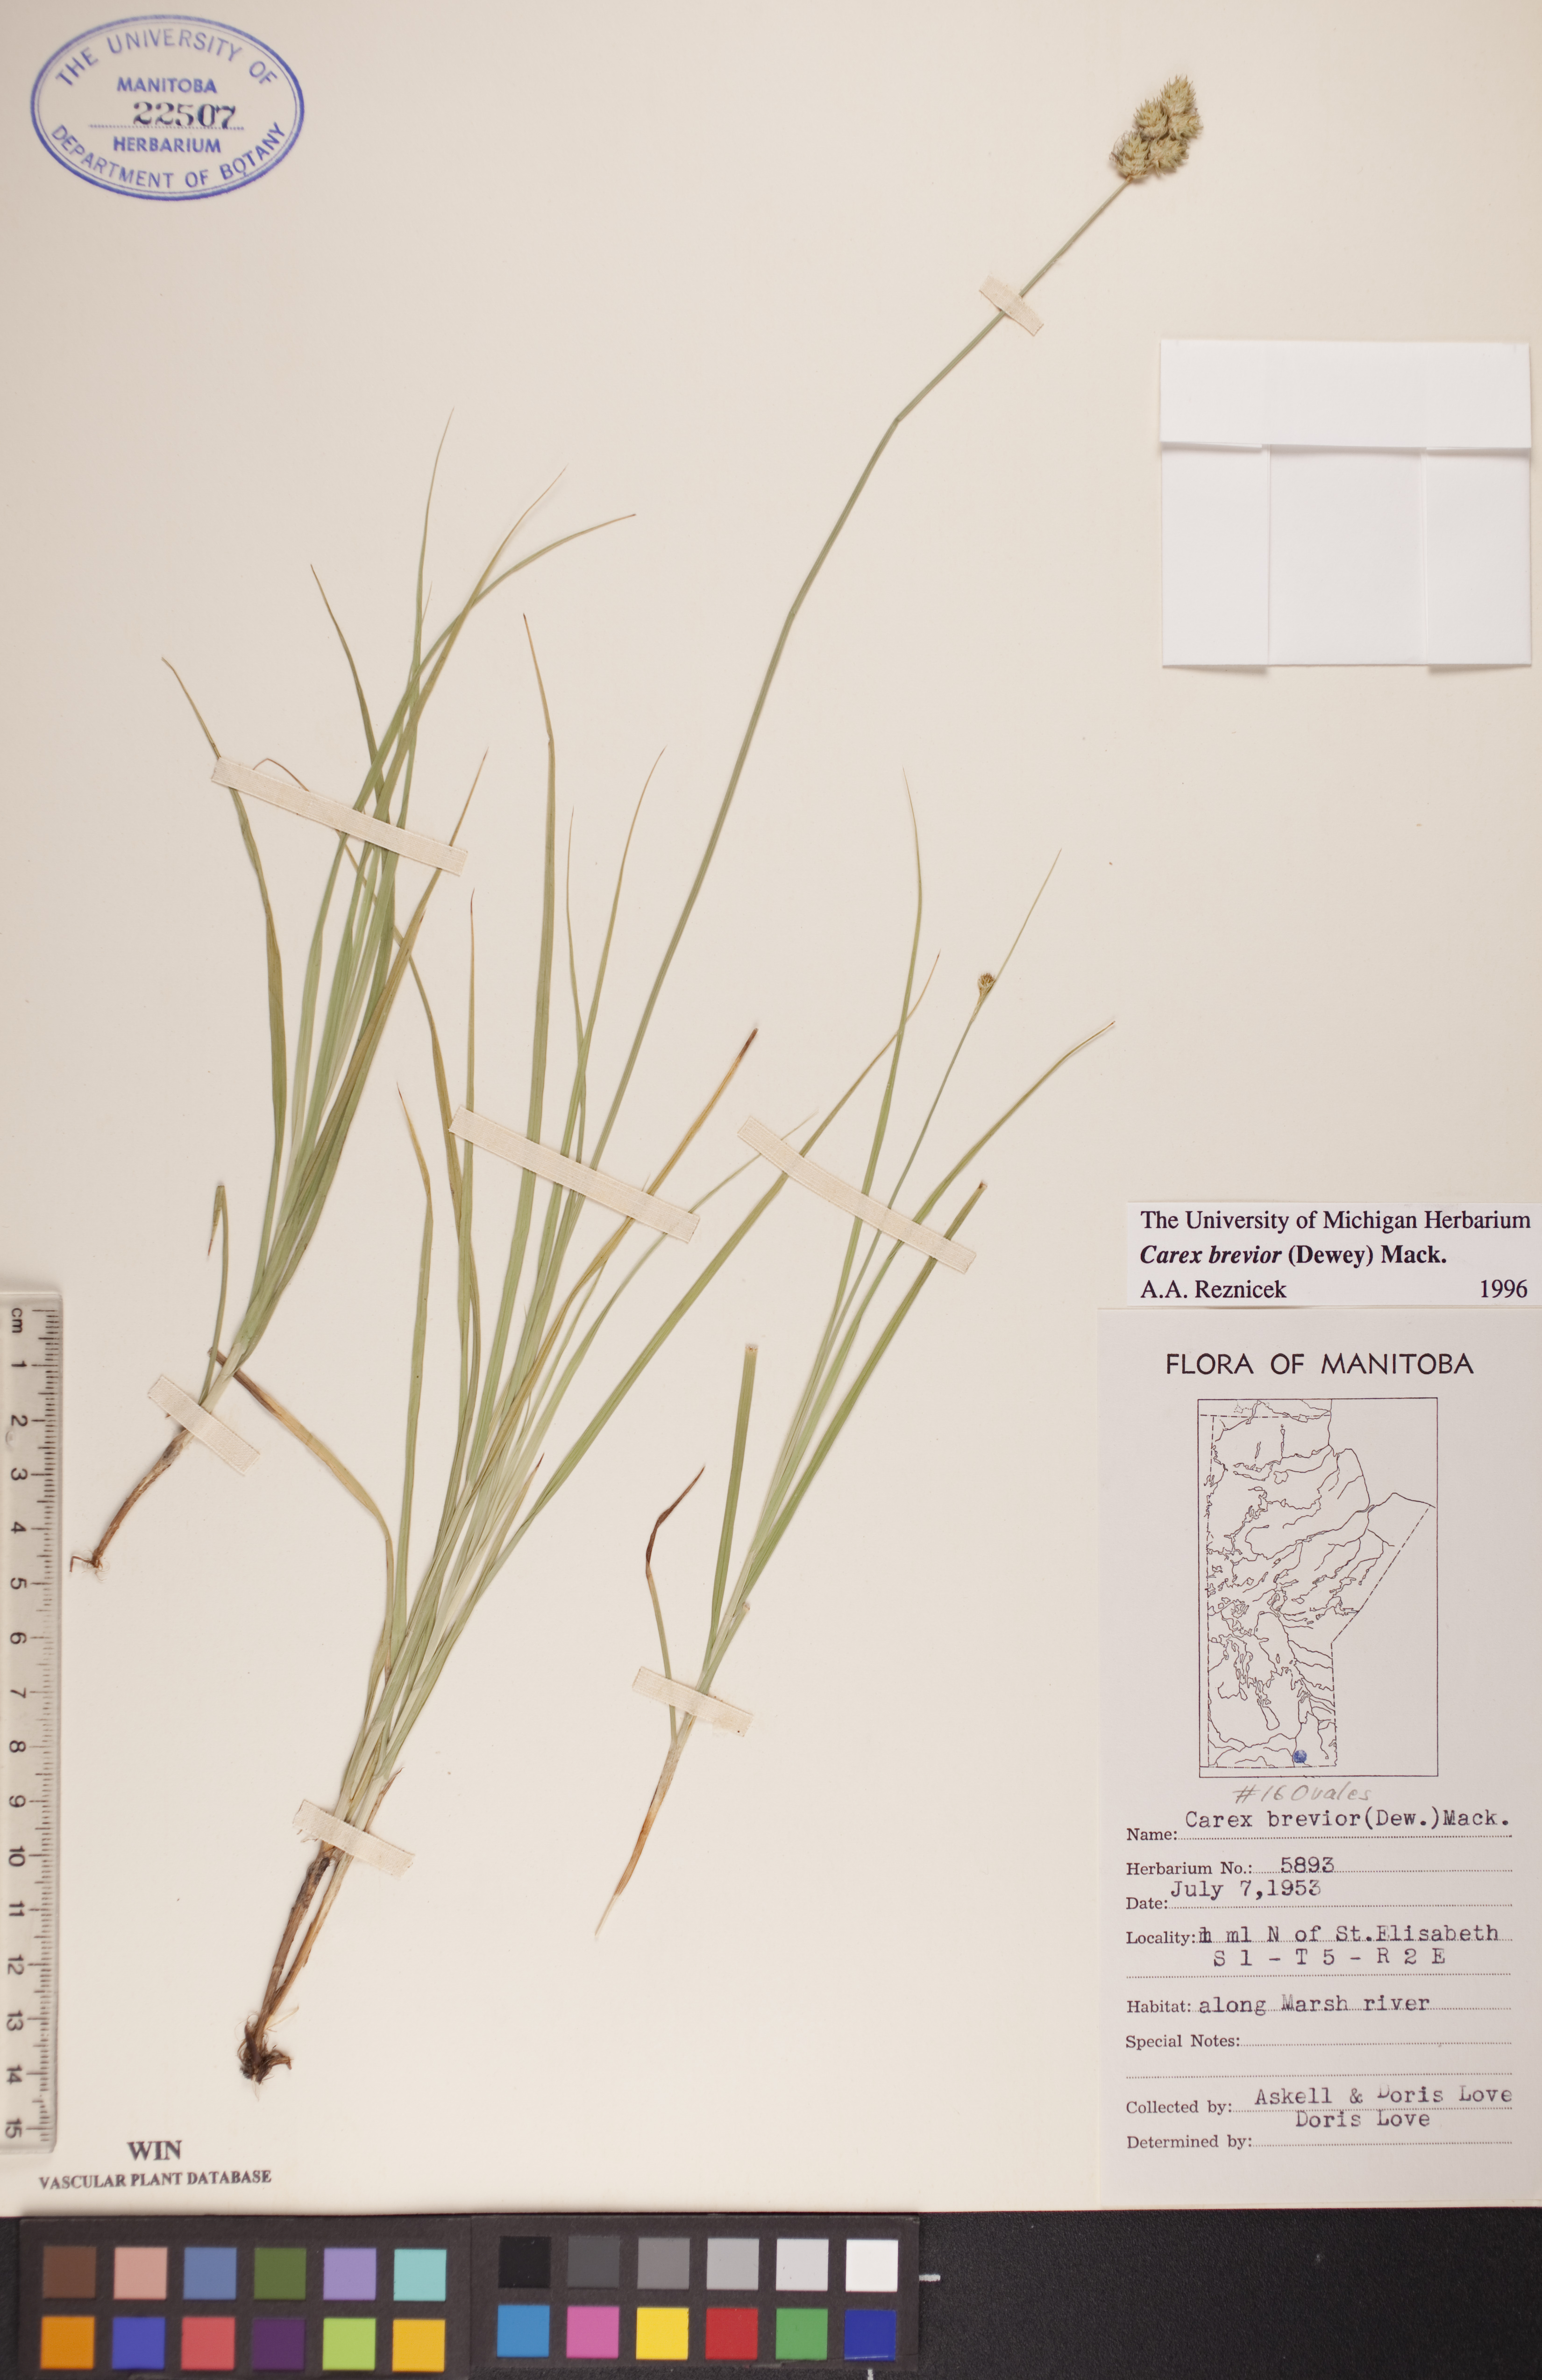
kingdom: Plantae
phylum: Tracheophyta
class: Liliopsida
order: Poales
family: Cyperaceae
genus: Carex
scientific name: Carex brevior
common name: Brevior sedge
